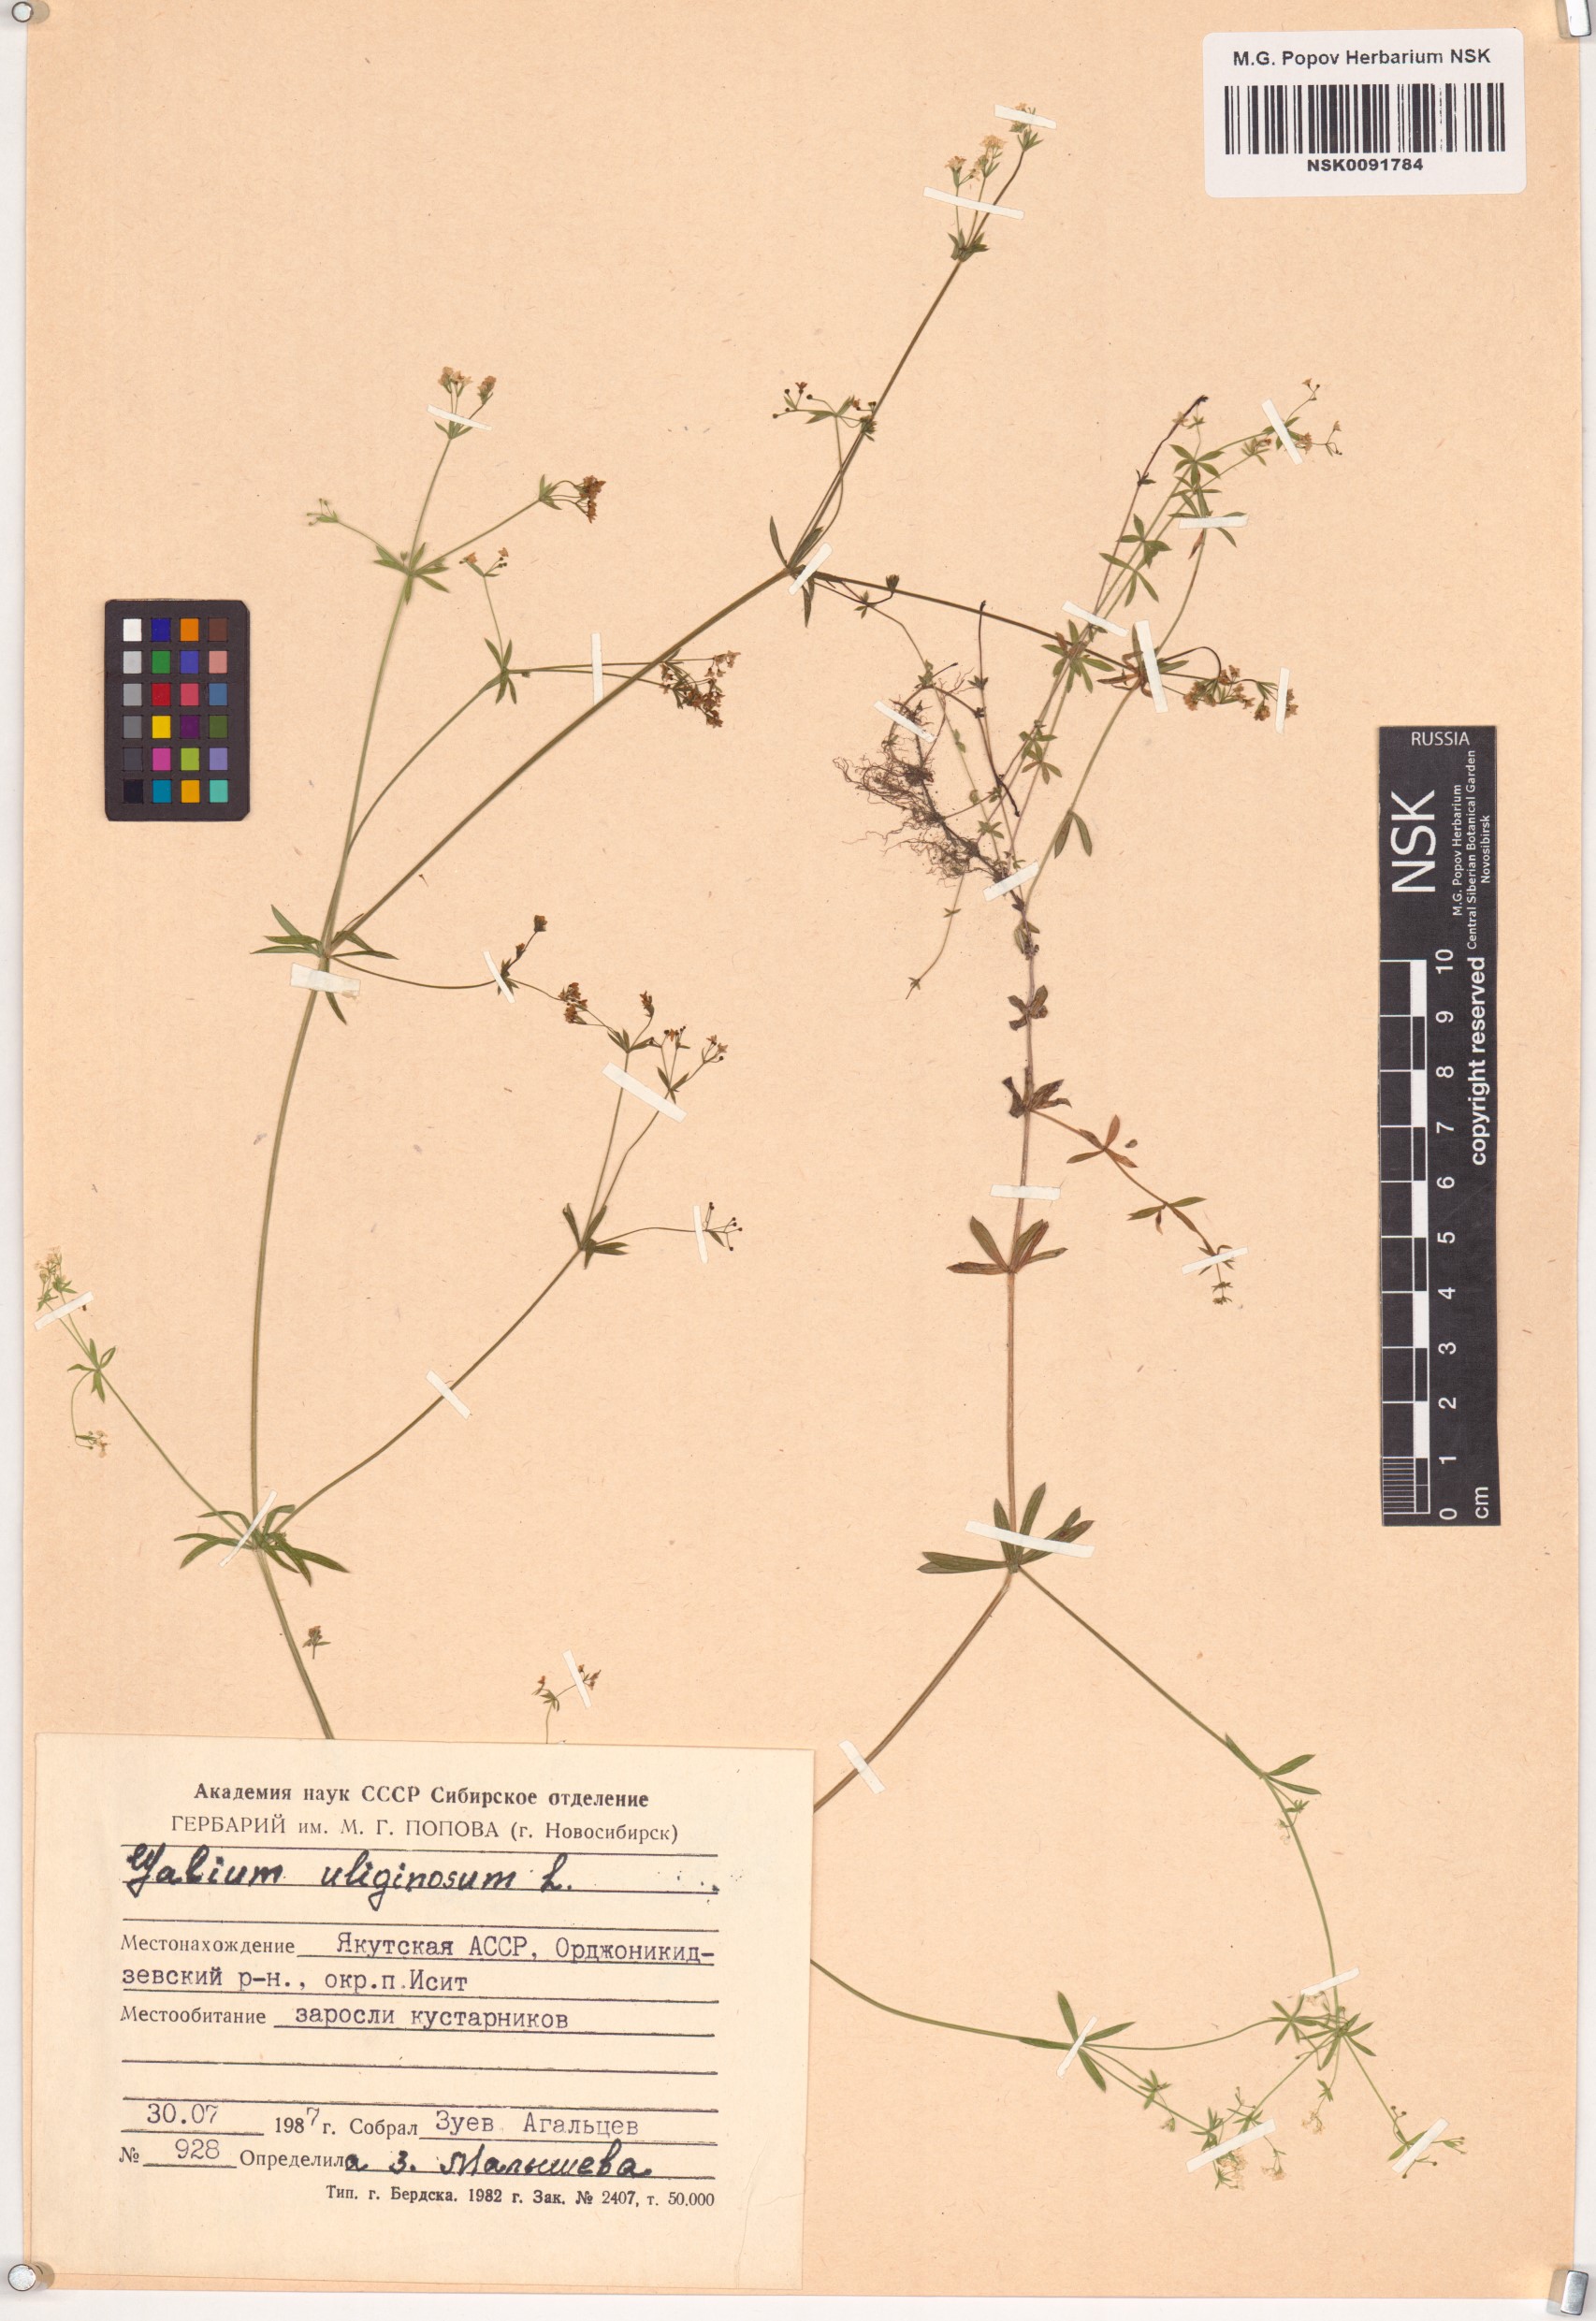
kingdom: Plantae
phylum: Tracheophyta
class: Magnoliopsida
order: Gentianales
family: Rubiaceae
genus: Galium
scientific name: Galium uliginosum
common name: Fen bedstraw
